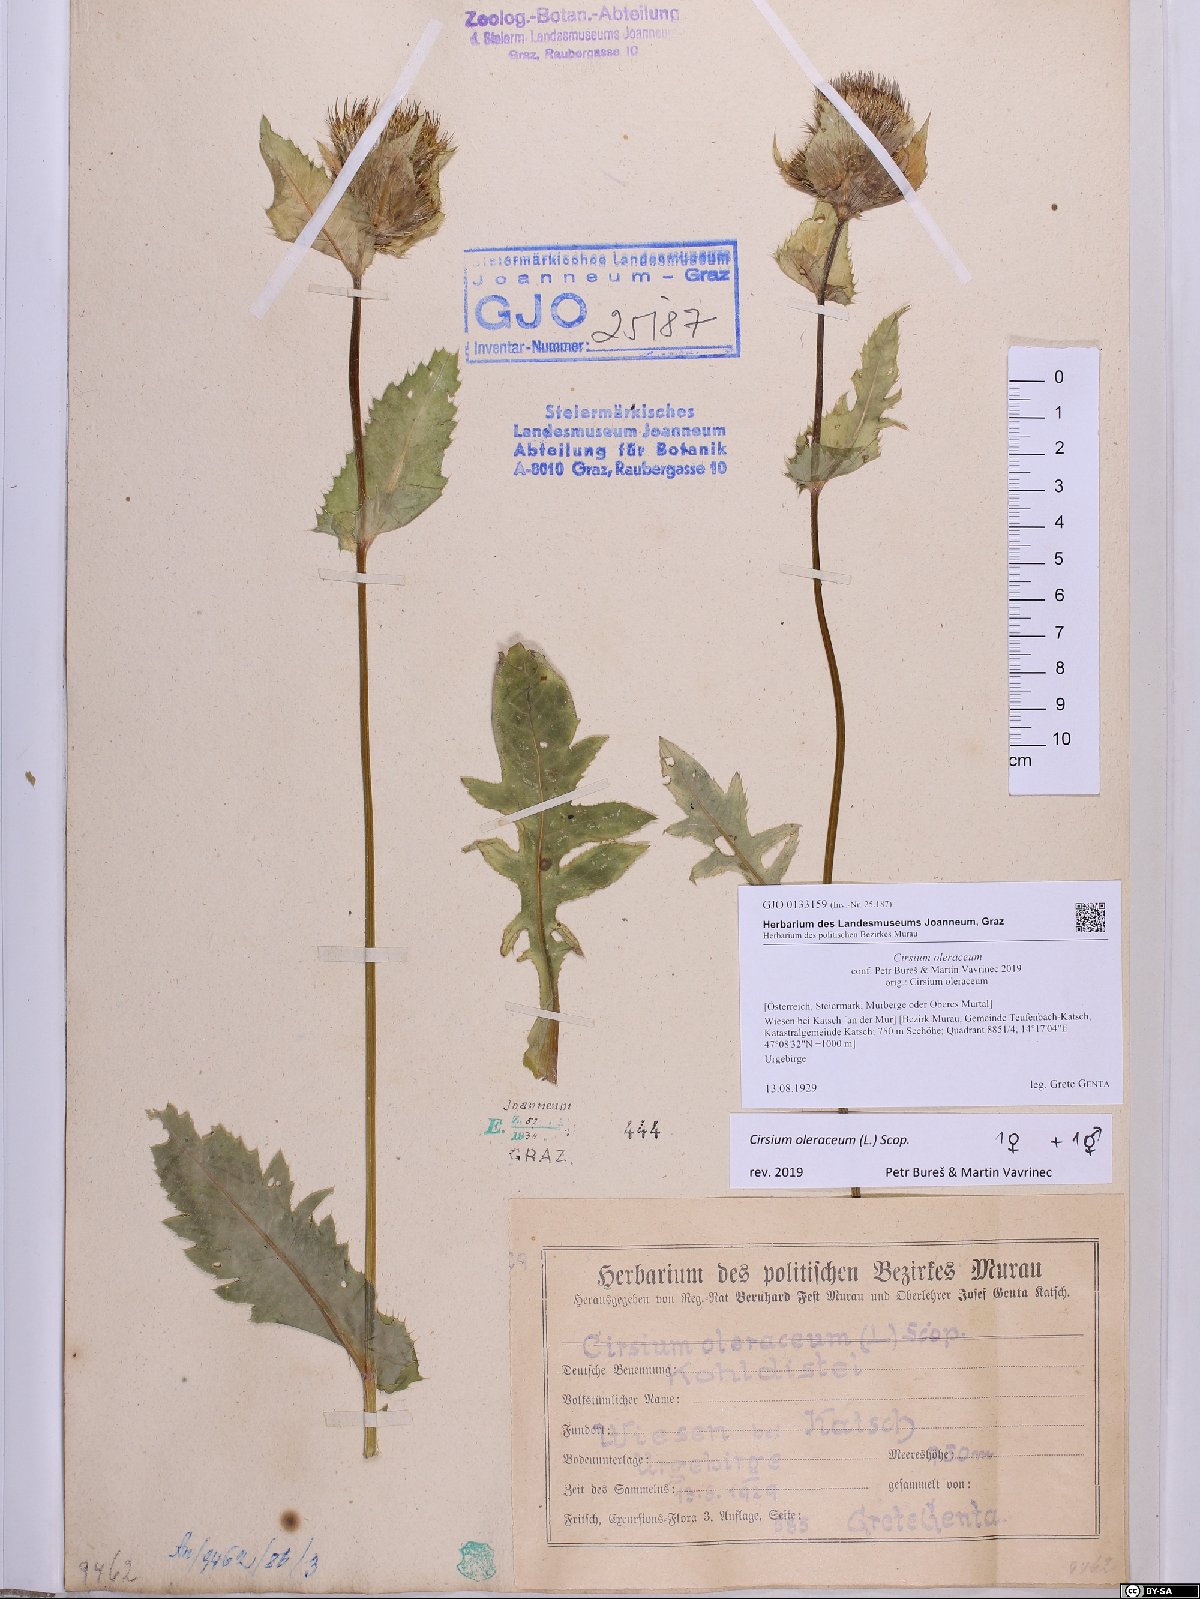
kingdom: Plantae
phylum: Tracheophyta
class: Magnoliopsida
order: Asterales
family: Asteraceae
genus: Cirsium
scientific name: Cirsium oleraceum
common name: Cabbage thistle
